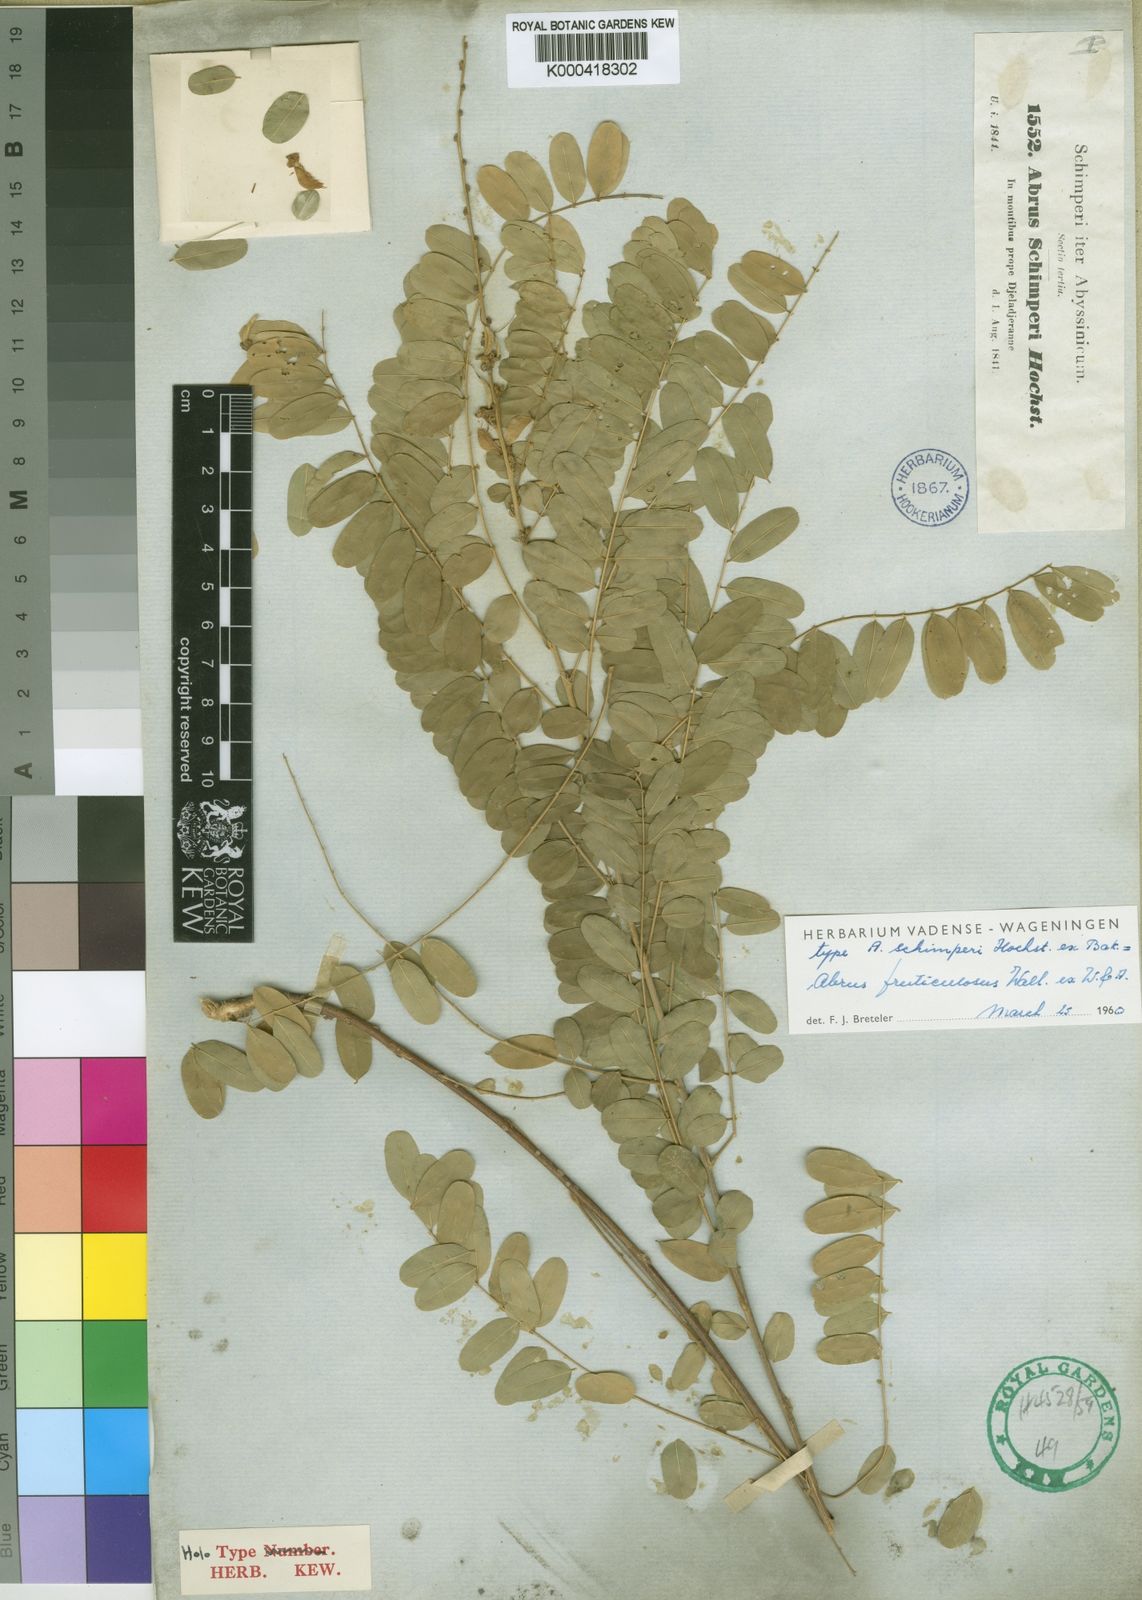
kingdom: Plantae
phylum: Tracheophyta
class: Magnoliopsida
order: Fabales
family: Fabaceae
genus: Abrus
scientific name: Abrus fruticulosus
